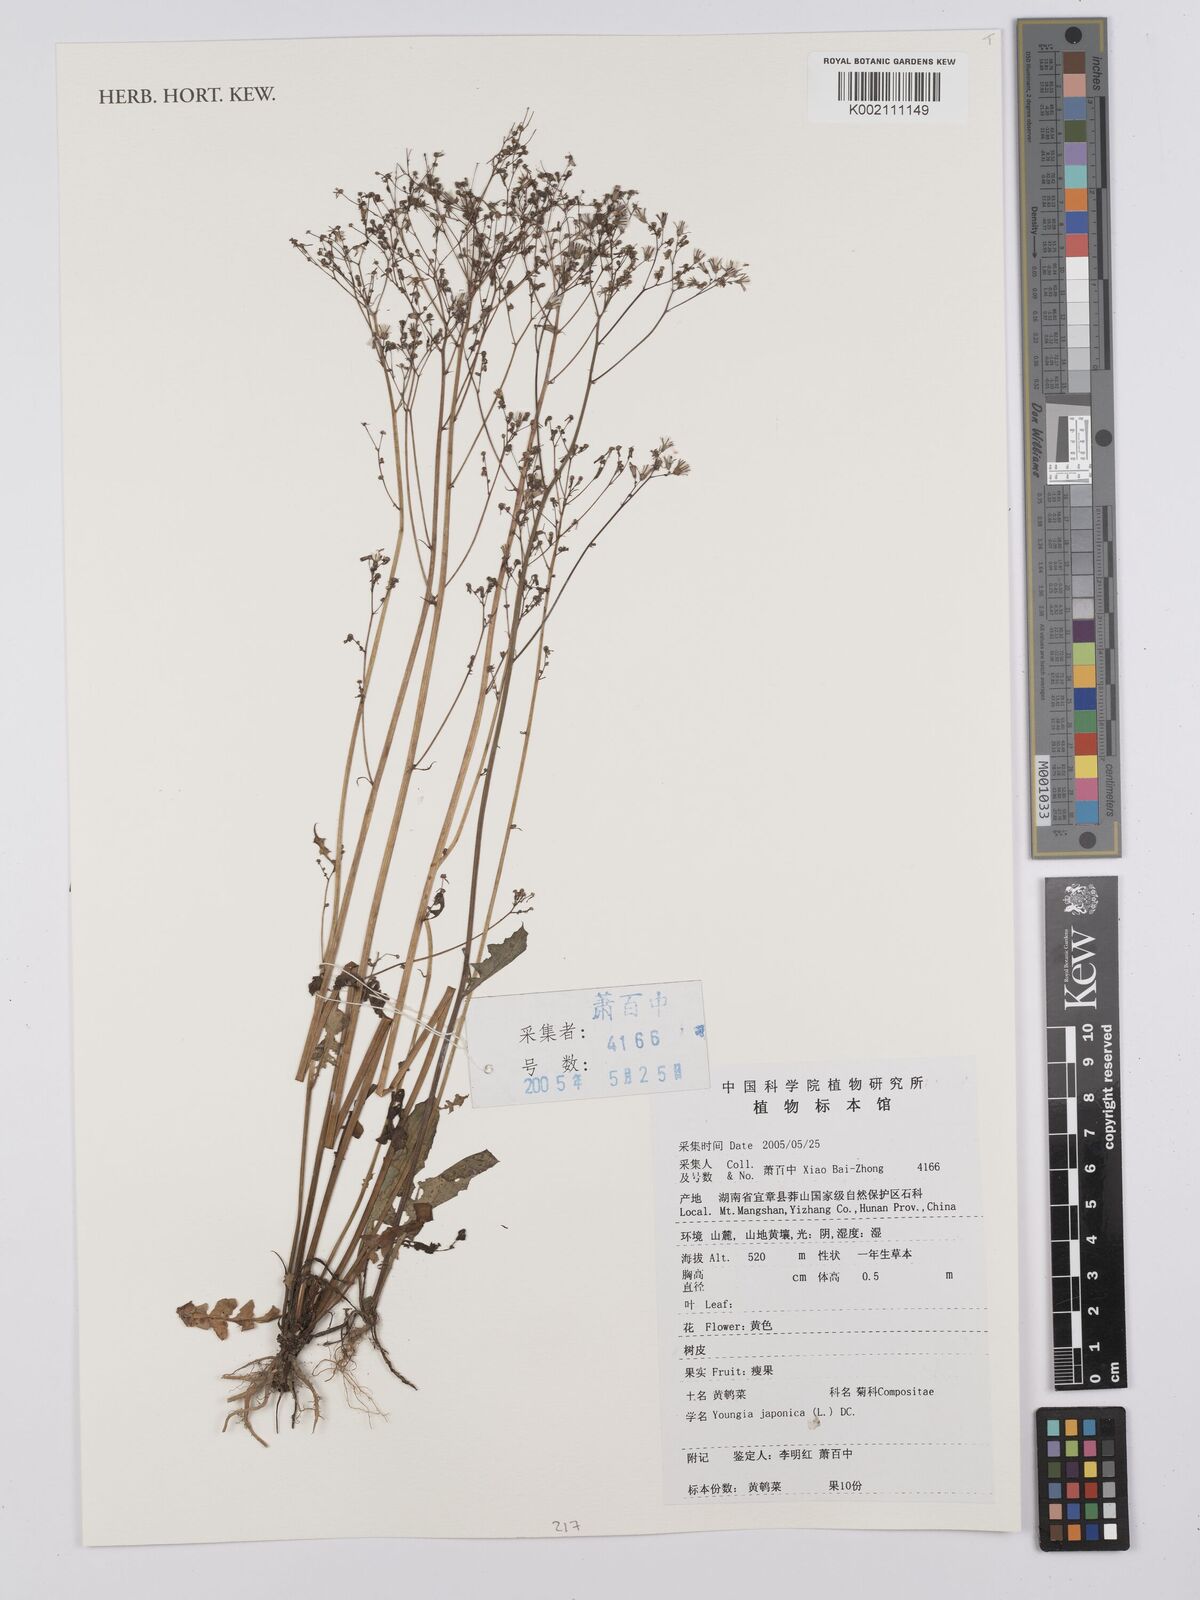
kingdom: Plantae
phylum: Tracheophyta
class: Magnoliopsida
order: Asterales
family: Asteraceae
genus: Youngia
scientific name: Youngia japonica
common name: Oriental false hawksbeard
